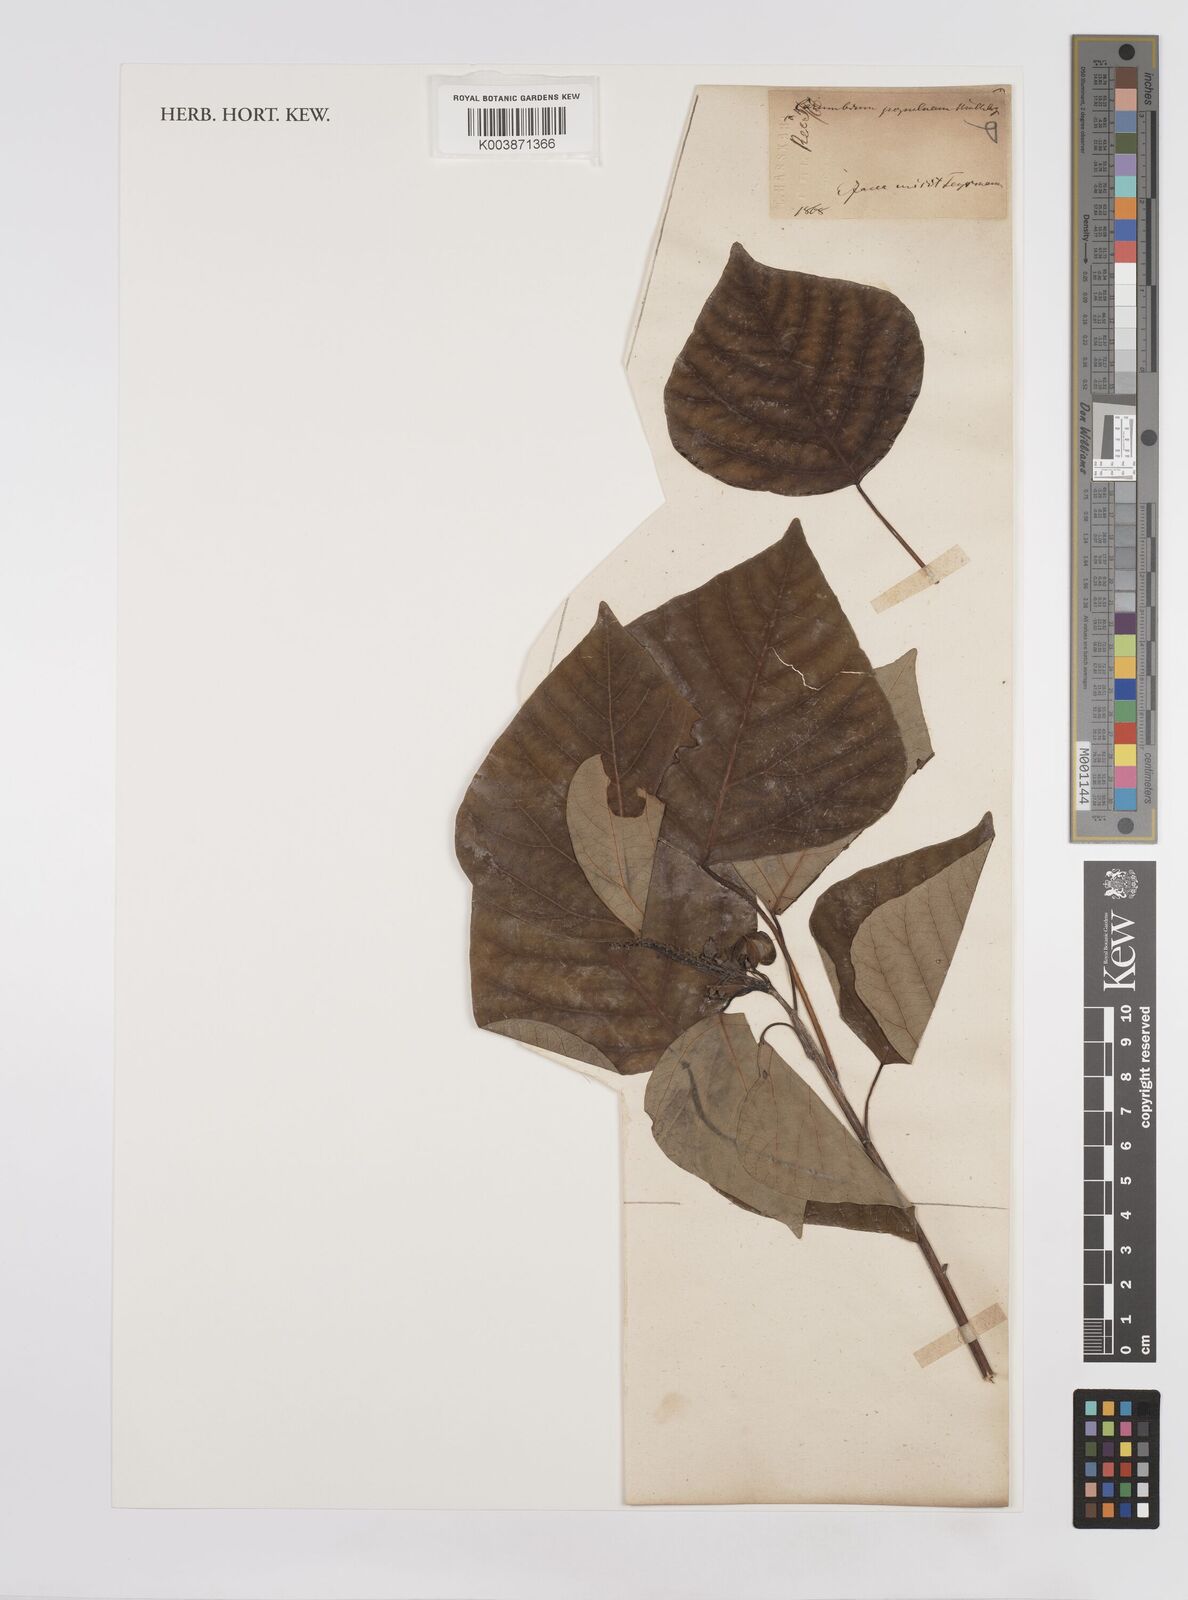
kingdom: Plantae
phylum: Tracheophyta
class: Magnoliopsida
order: Malpighiales
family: Euphorbiaceae
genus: Homalanthus
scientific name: Homalanthus populneus
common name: Spurge
